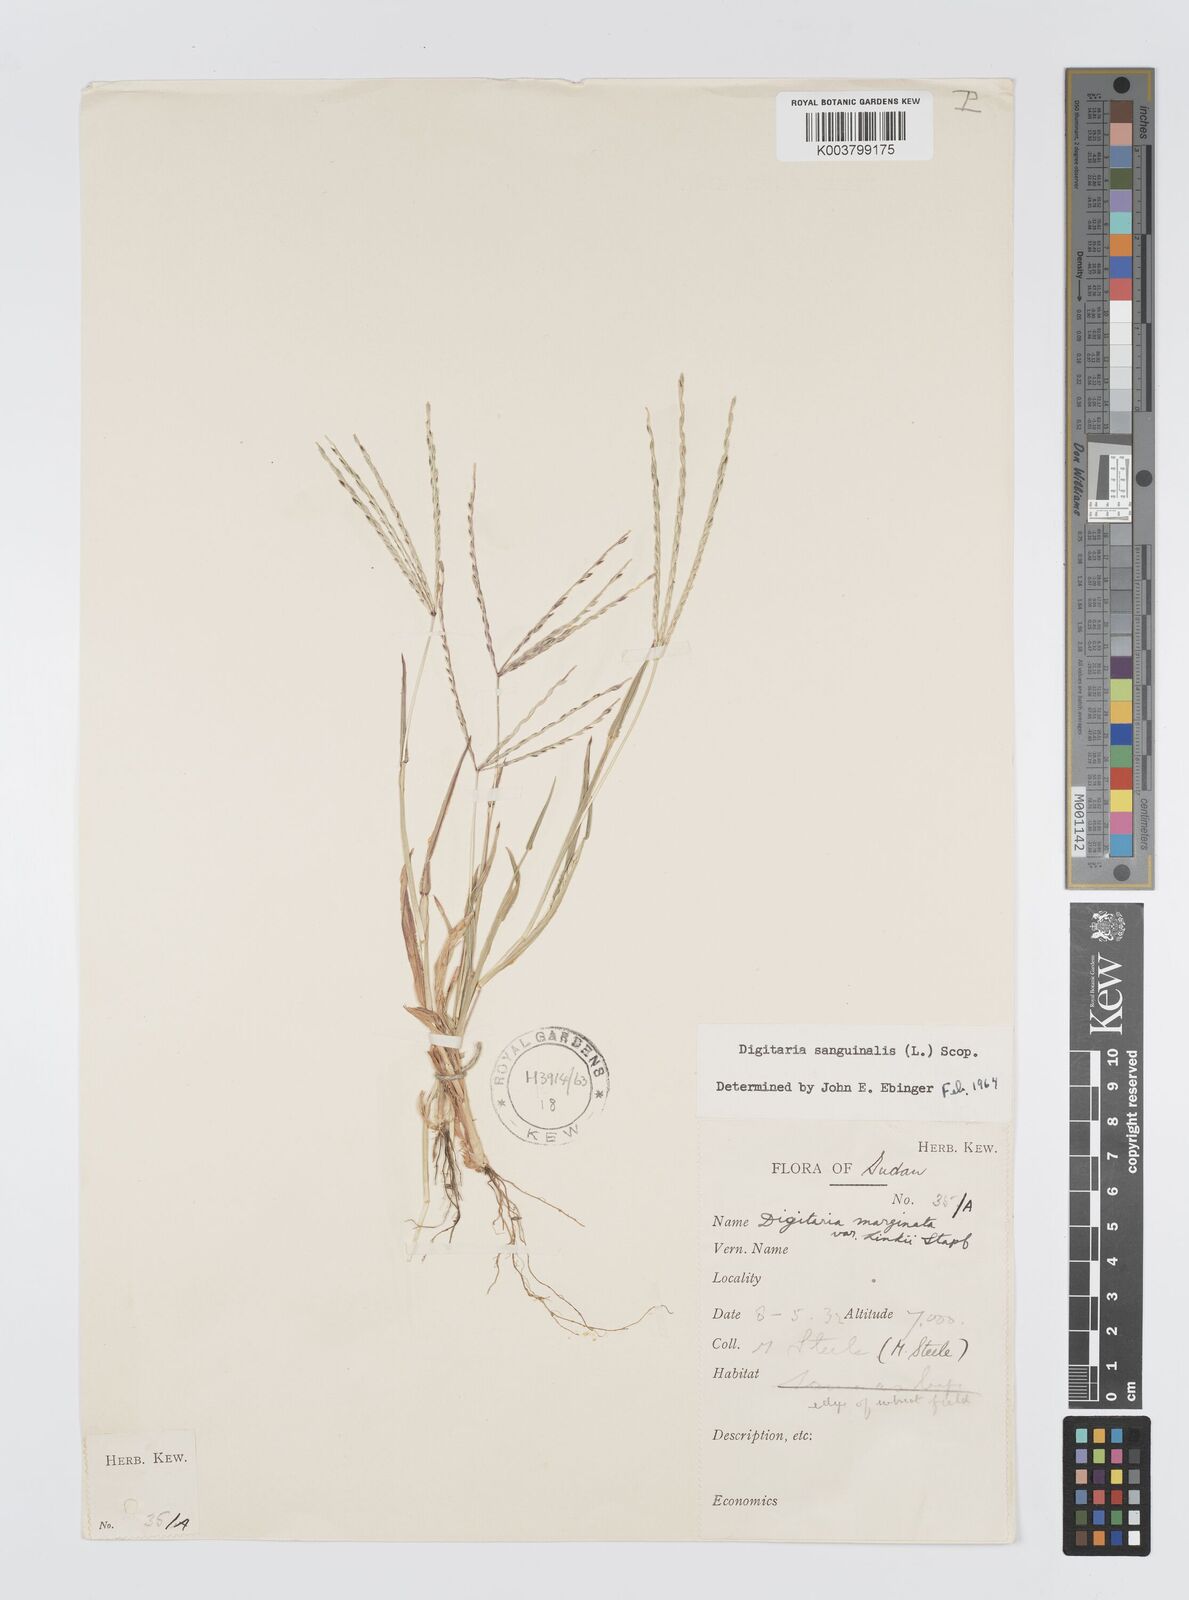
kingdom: Plantae
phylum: Tracheophyta
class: Liliopsida
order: Poales
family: Poaceae
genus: Digitaria
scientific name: Digitaria sanguinalis
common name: Hairy crabgrass
